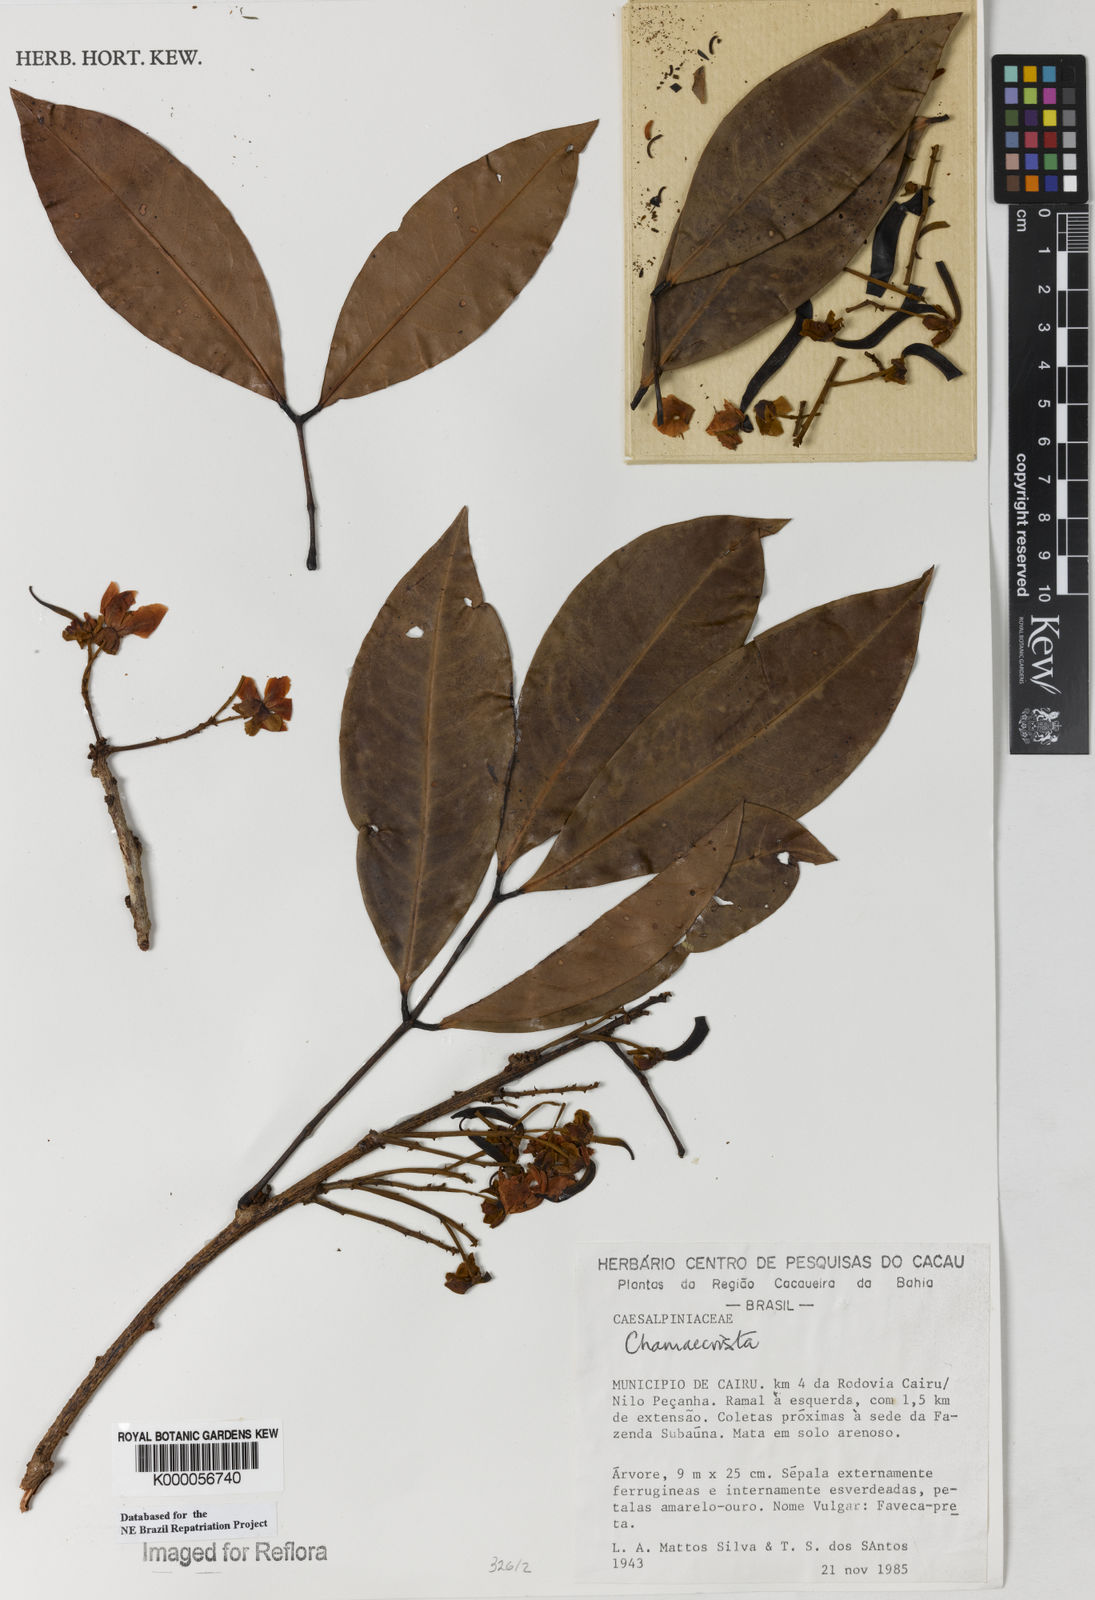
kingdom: Plantae
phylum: Tracheophyta
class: Magnoliopsida
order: Fabales
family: Fabaceae
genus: Chamaecrista
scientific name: Chamaecrista
